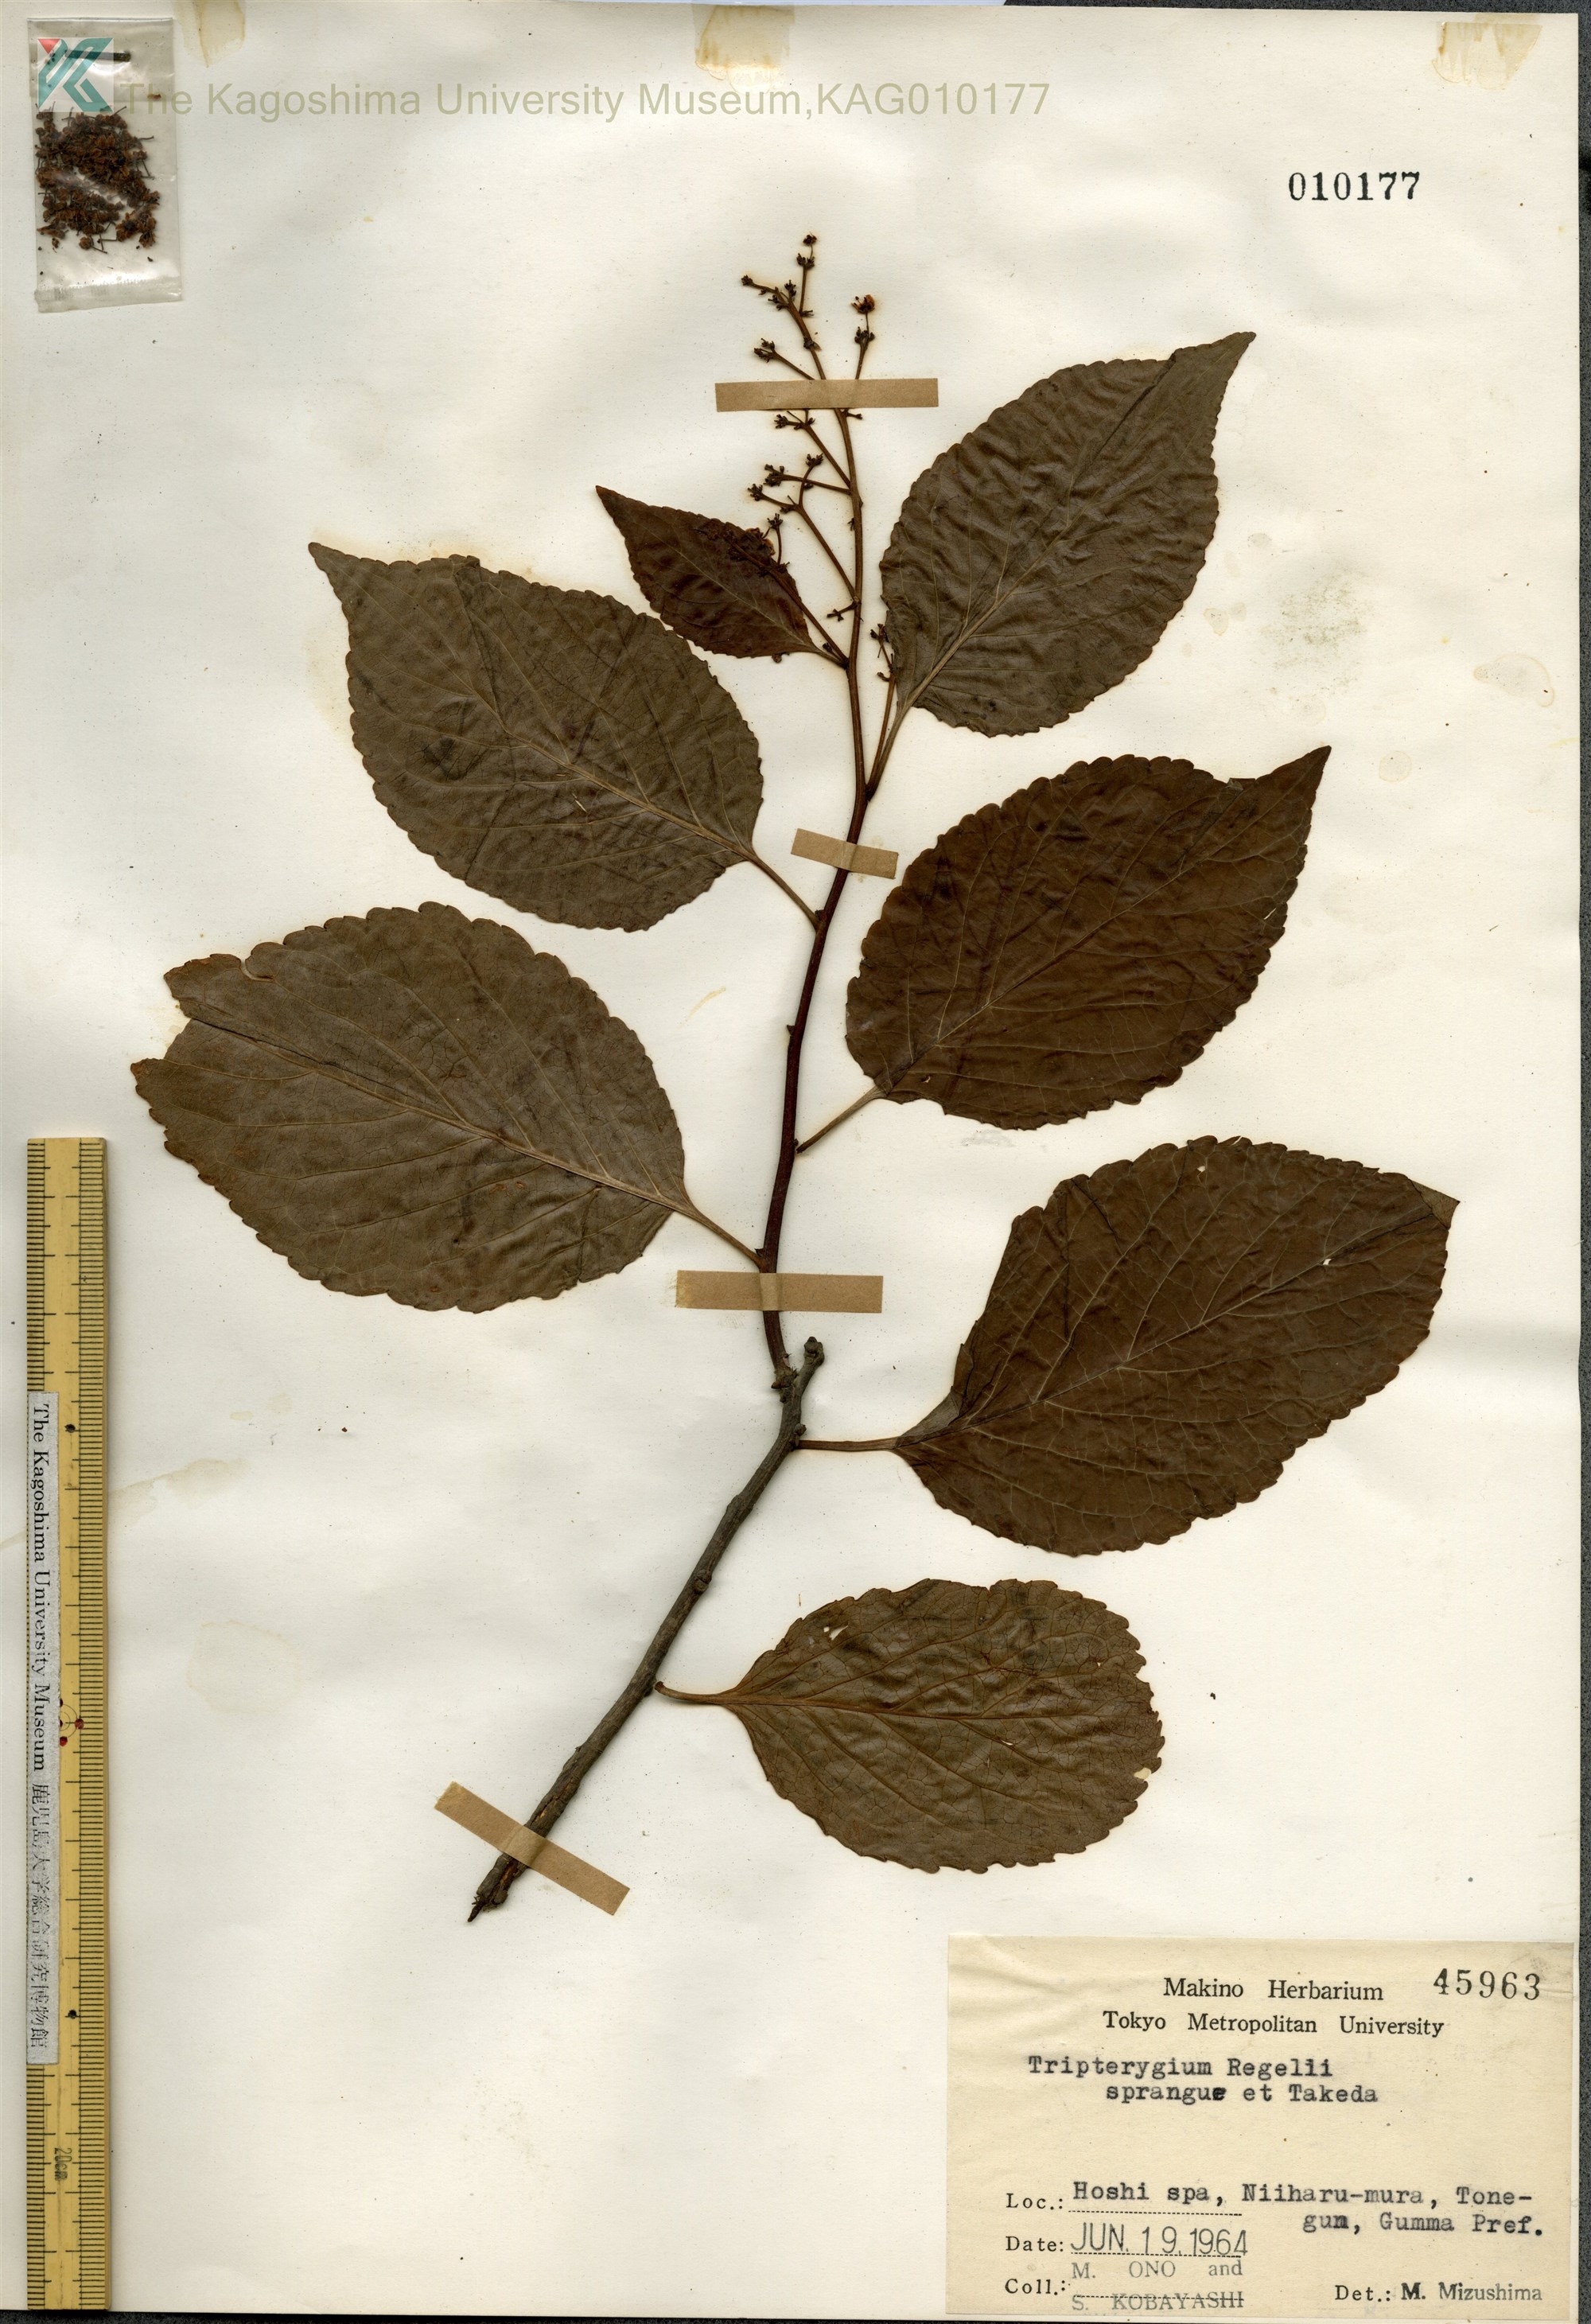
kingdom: Plantae
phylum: Tracheophyta
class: Magnoliopsida
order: Celastrales
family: Celastraceae
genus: Tripterygium
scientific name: Tripterygium wilfordii
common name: クロヅル
